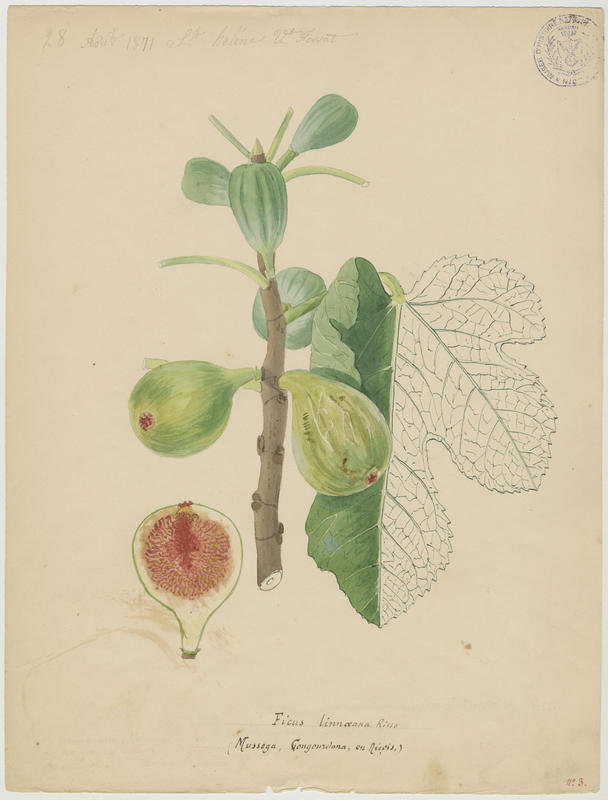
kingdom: Plantae
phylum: Tracheophyta
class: Magnoliopsida
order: Rosales
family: Moraceae
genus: Ficus
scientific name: Ficus carica
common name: Fig
